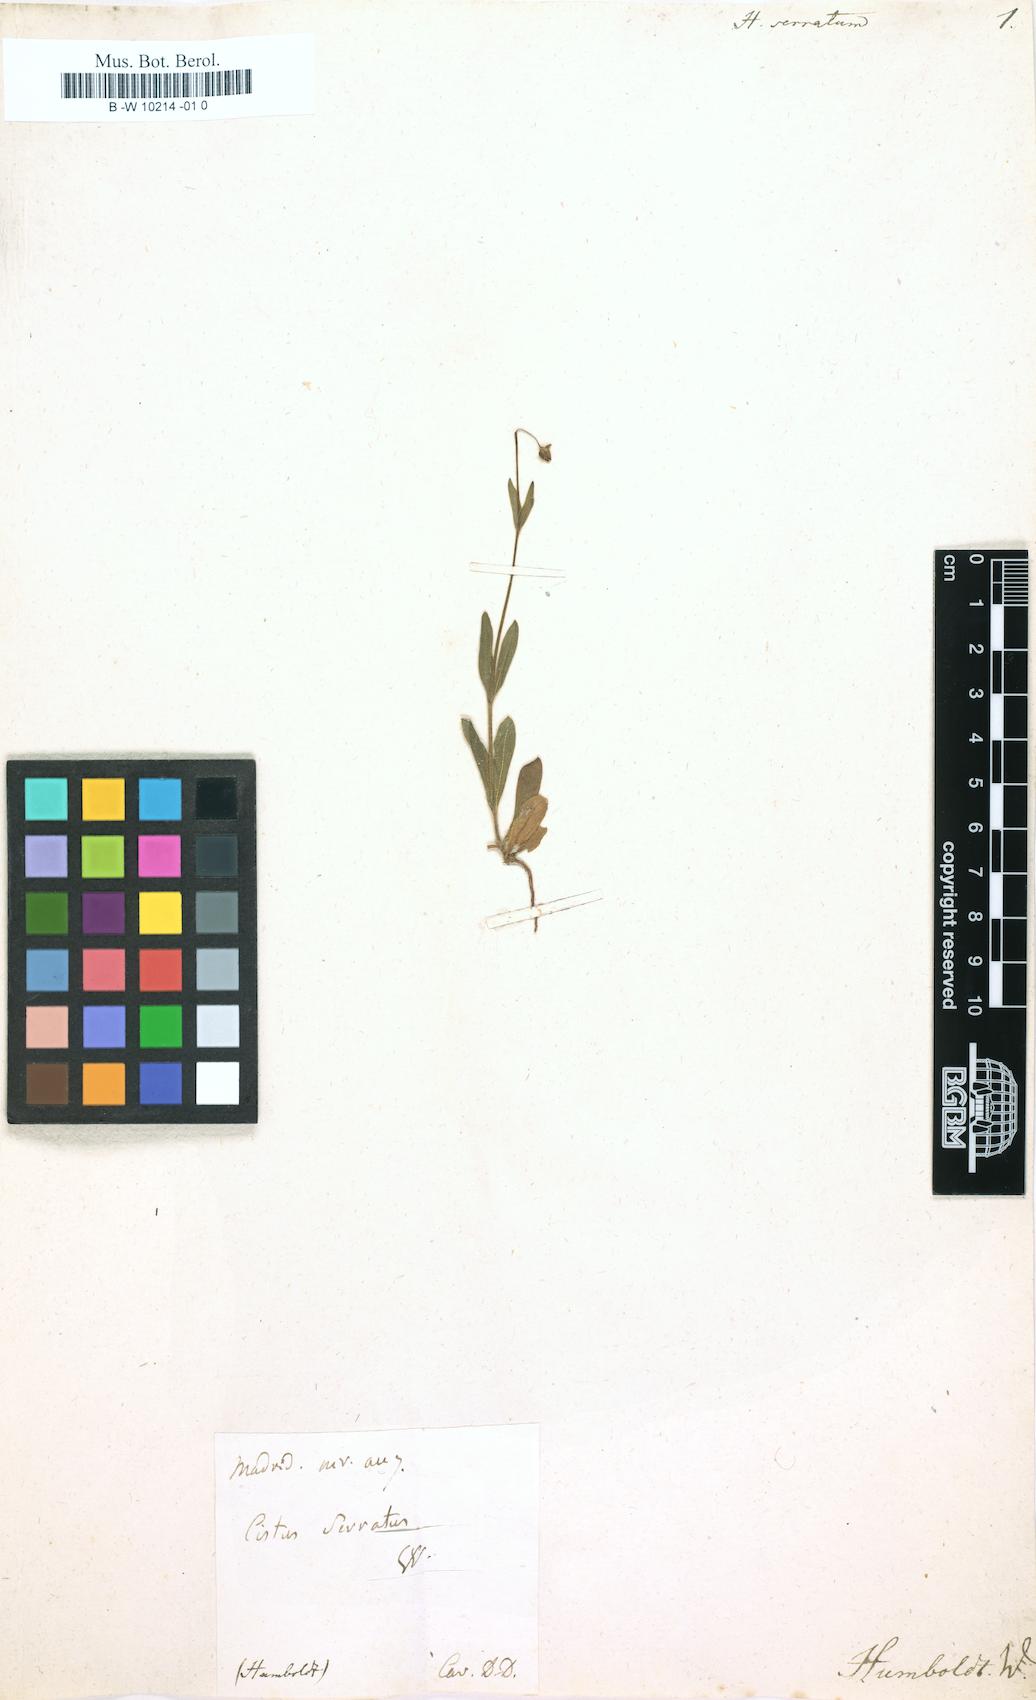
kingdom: Plantae
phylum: Tracheophyta
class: Magnoliopsida
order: Malvales
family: Cistaceae
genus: Tuberaria
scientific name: Tuberaria guttata
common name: Spotted rock-rose
